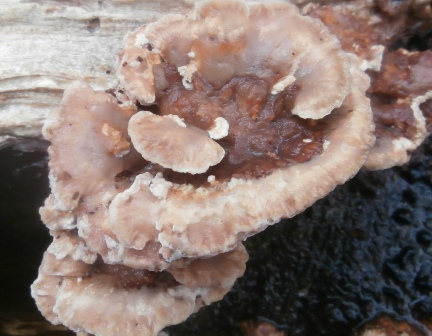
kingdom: Fungi
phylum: Basidiomycota
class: Agaricomycetes
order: Polyporales
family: Podoscyphaceae
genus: Abortiporus
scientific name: Abortiporus biennis
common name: rødmende pjalteporesvamp
